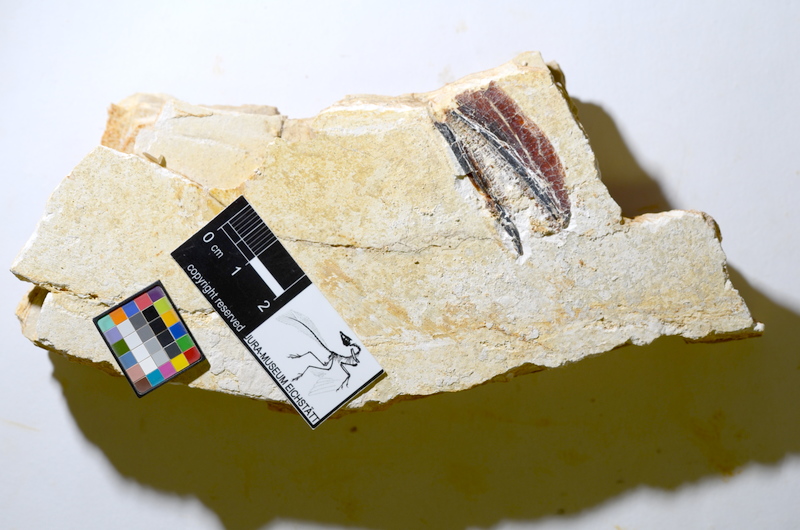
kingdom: Animalia
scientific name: Animalia
